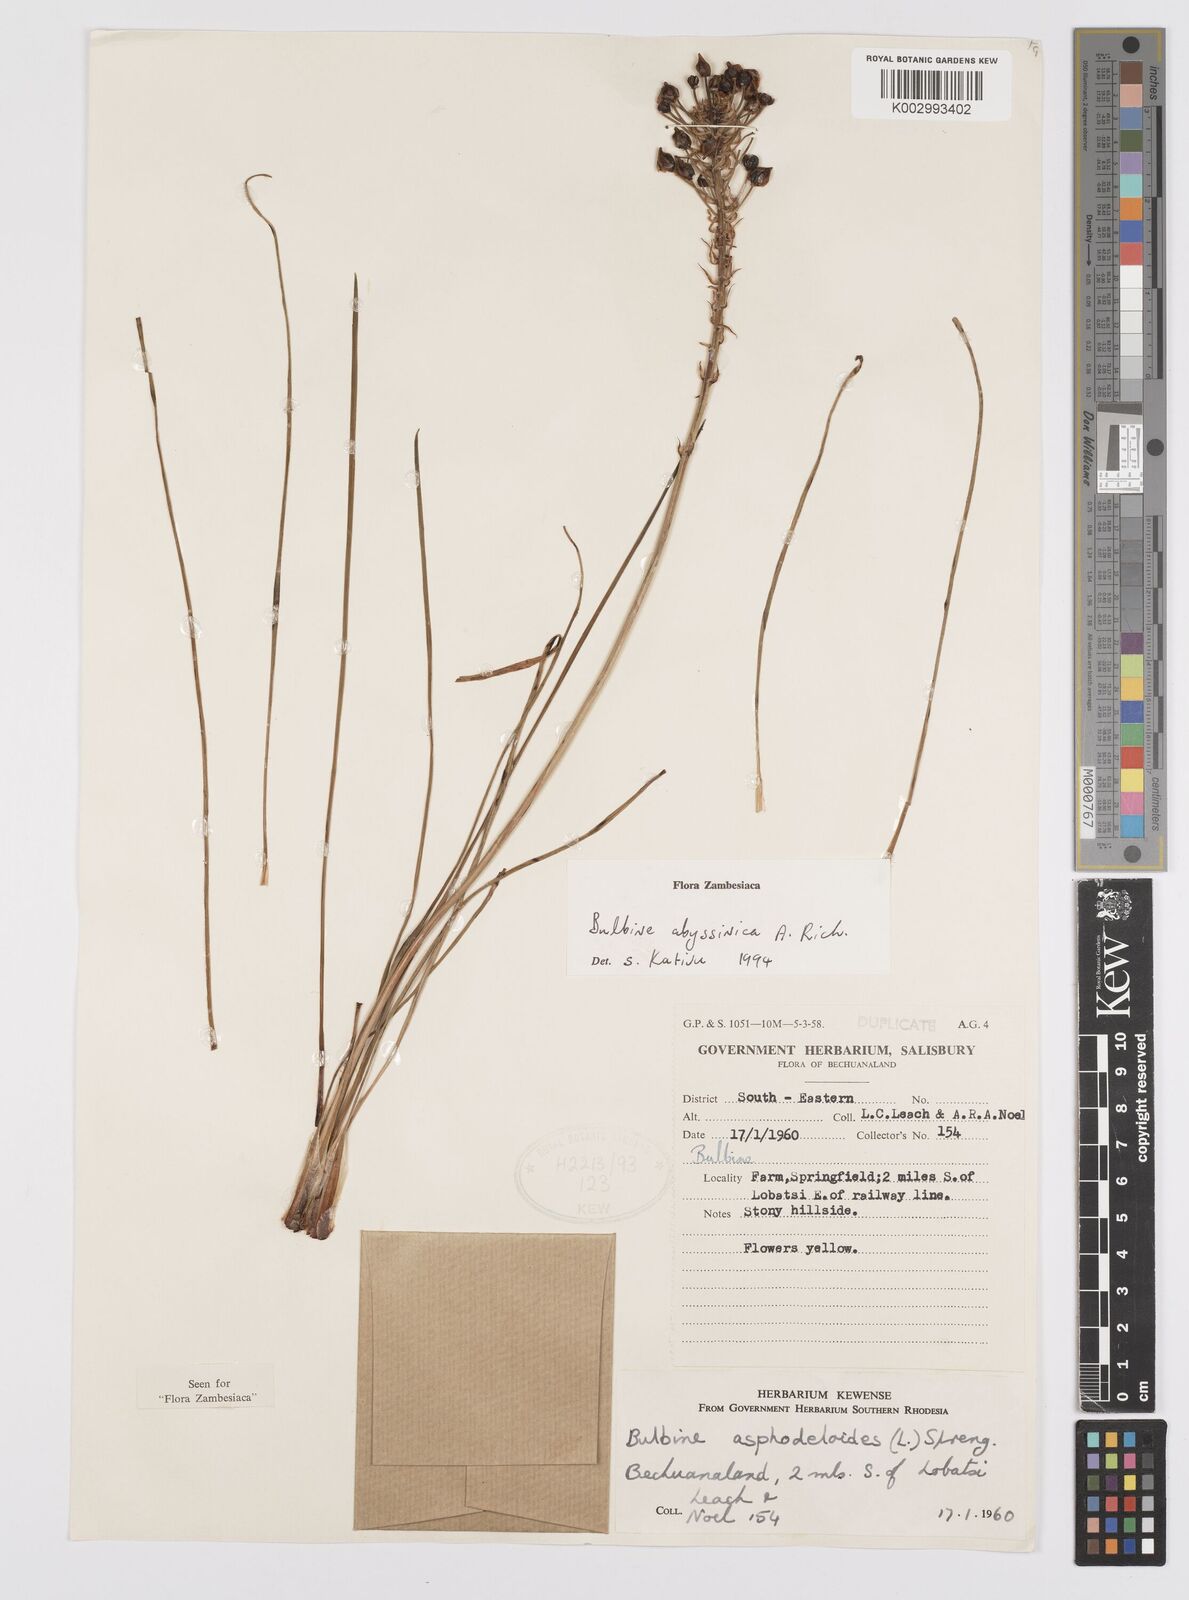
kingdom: Plantae
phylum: Tracheophyta
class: Liliopsida
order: Asparagales
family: Asphodelaceae
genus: Bulbine
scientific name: Bulbine abyssinica
